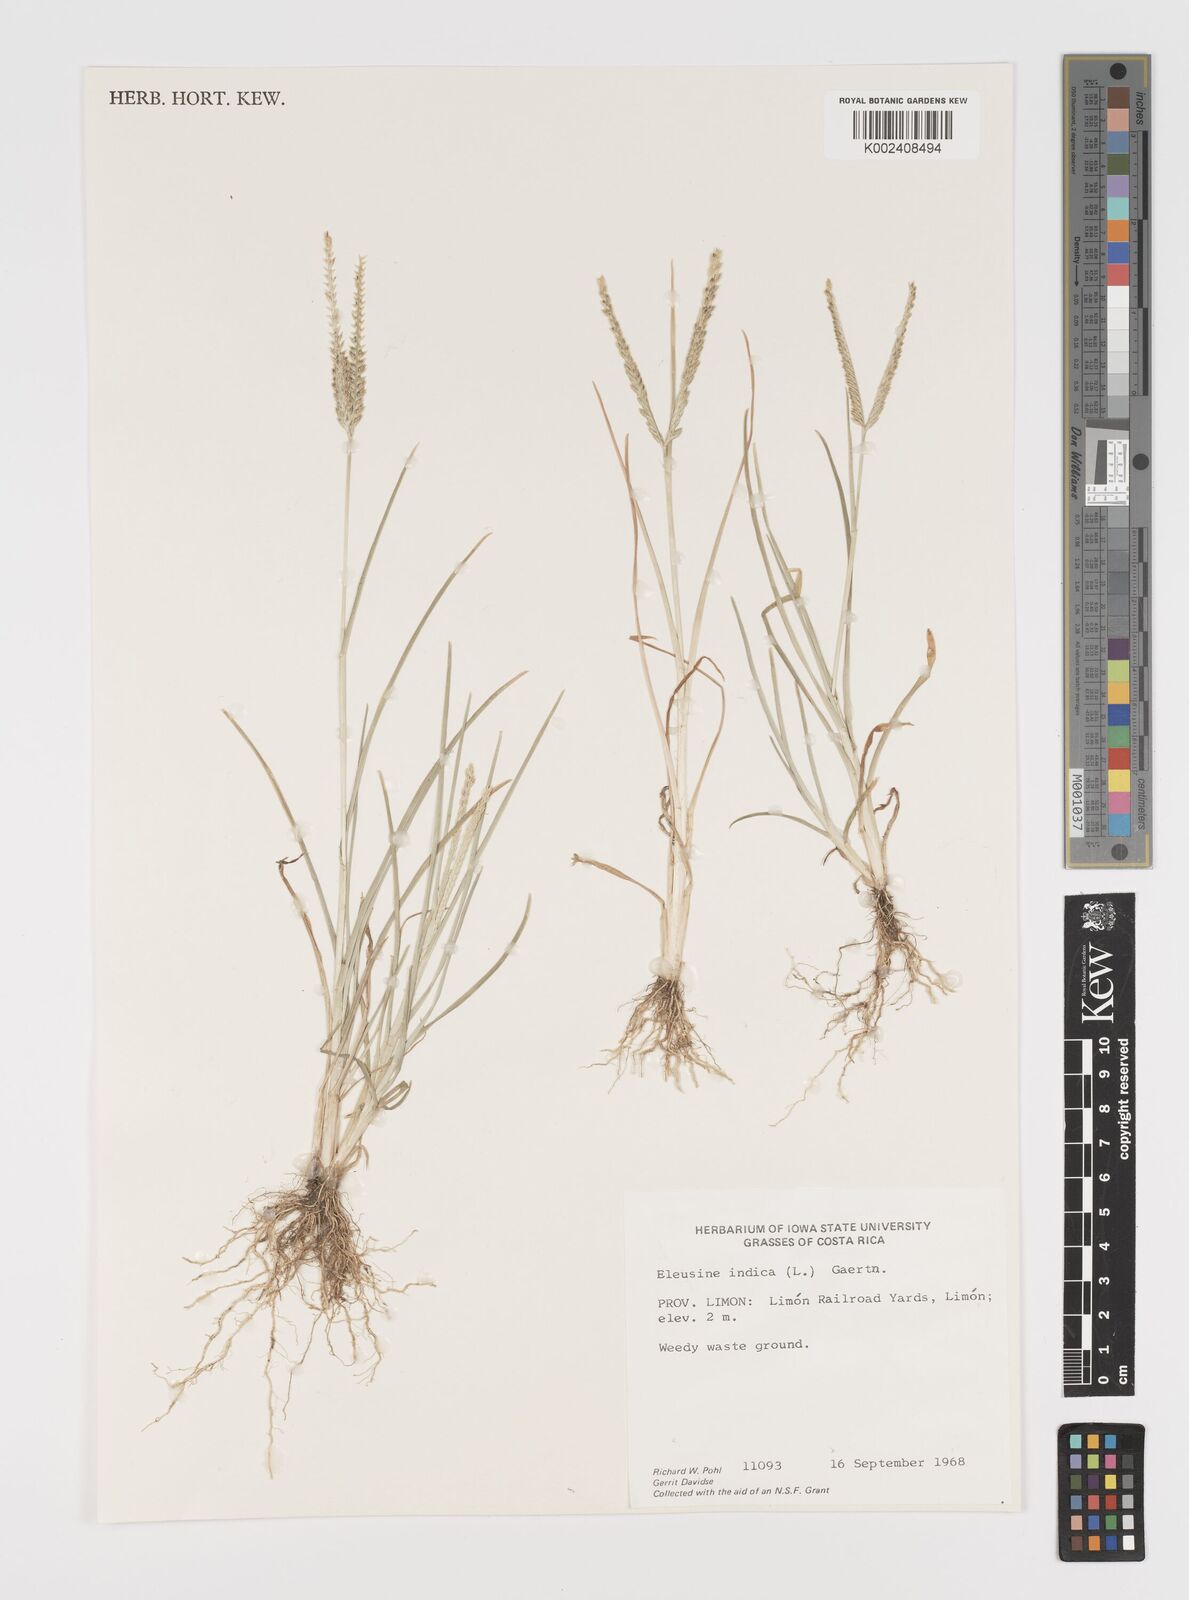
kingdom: Plantae
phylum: Tracheophyta
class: Liliopsida
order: Poales
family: Poaceae
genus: Eleusine
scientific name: Eleusine indica
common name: Yard-grass
